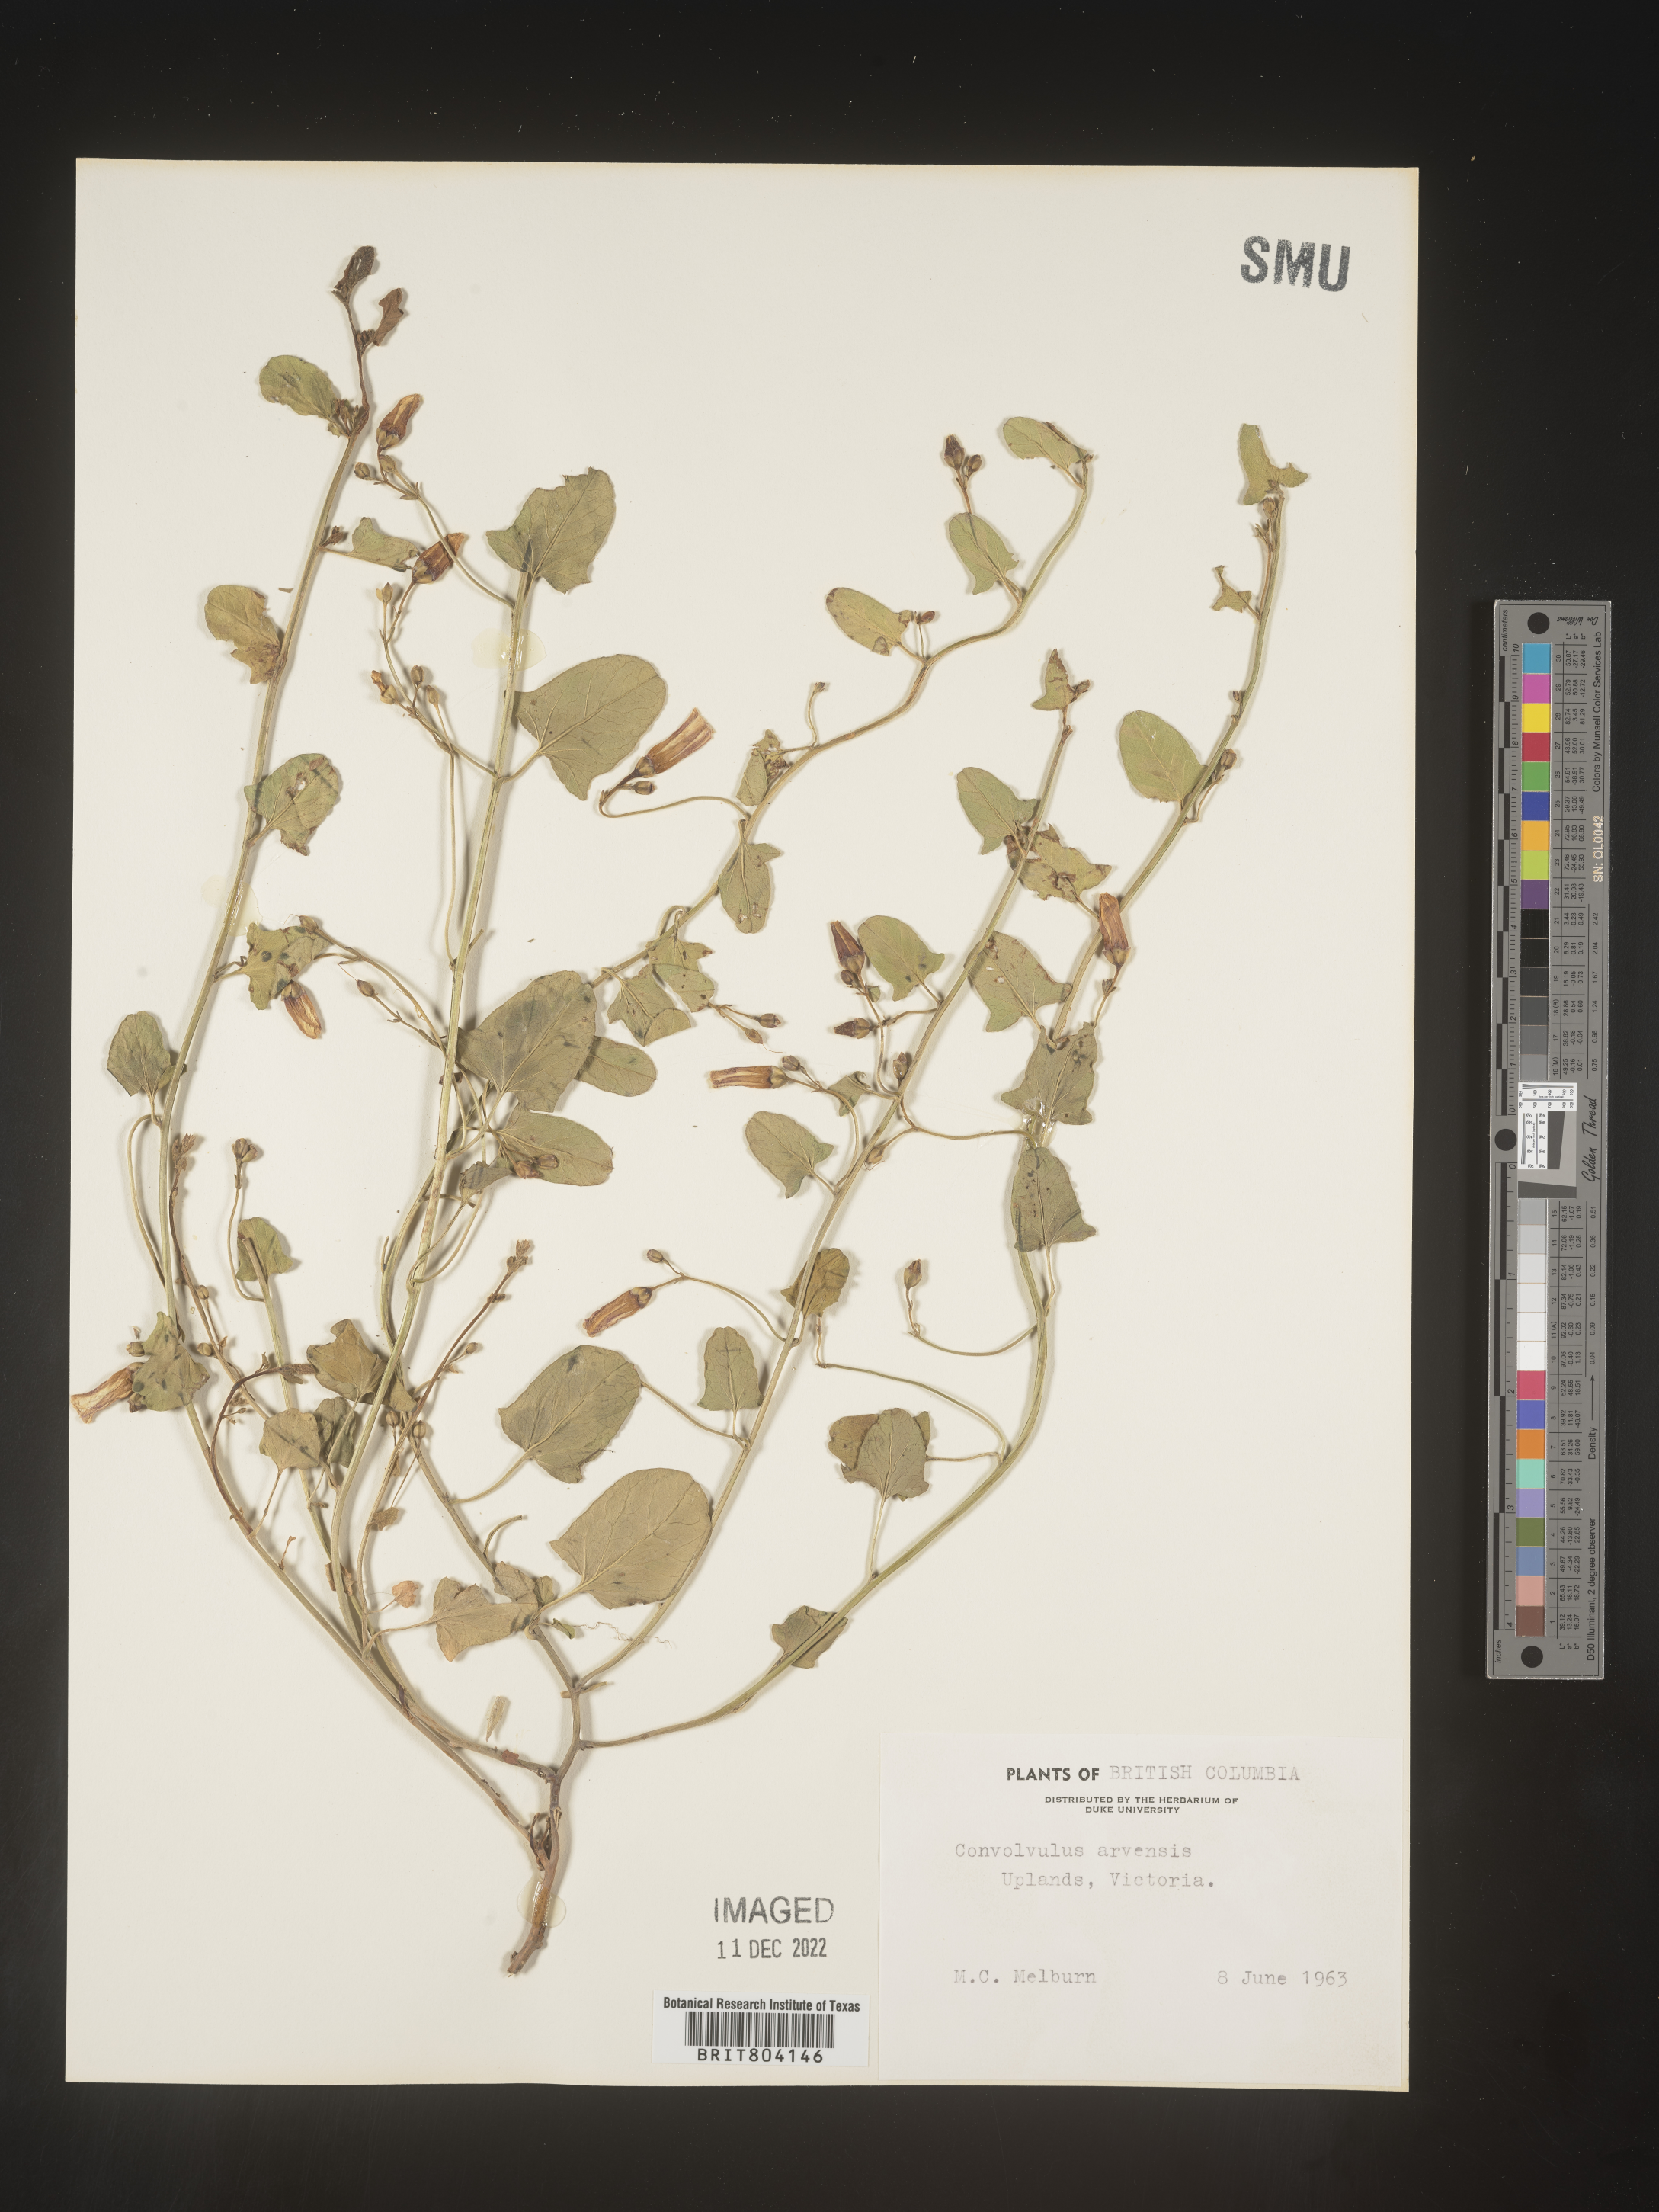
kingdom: Plantae
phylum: Tracheophyta
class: Magnoliopsida
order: Solanales
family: Convolvulaceae
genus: Convolvulus
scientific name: Convolvulus arvensis
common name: Field bindweed
